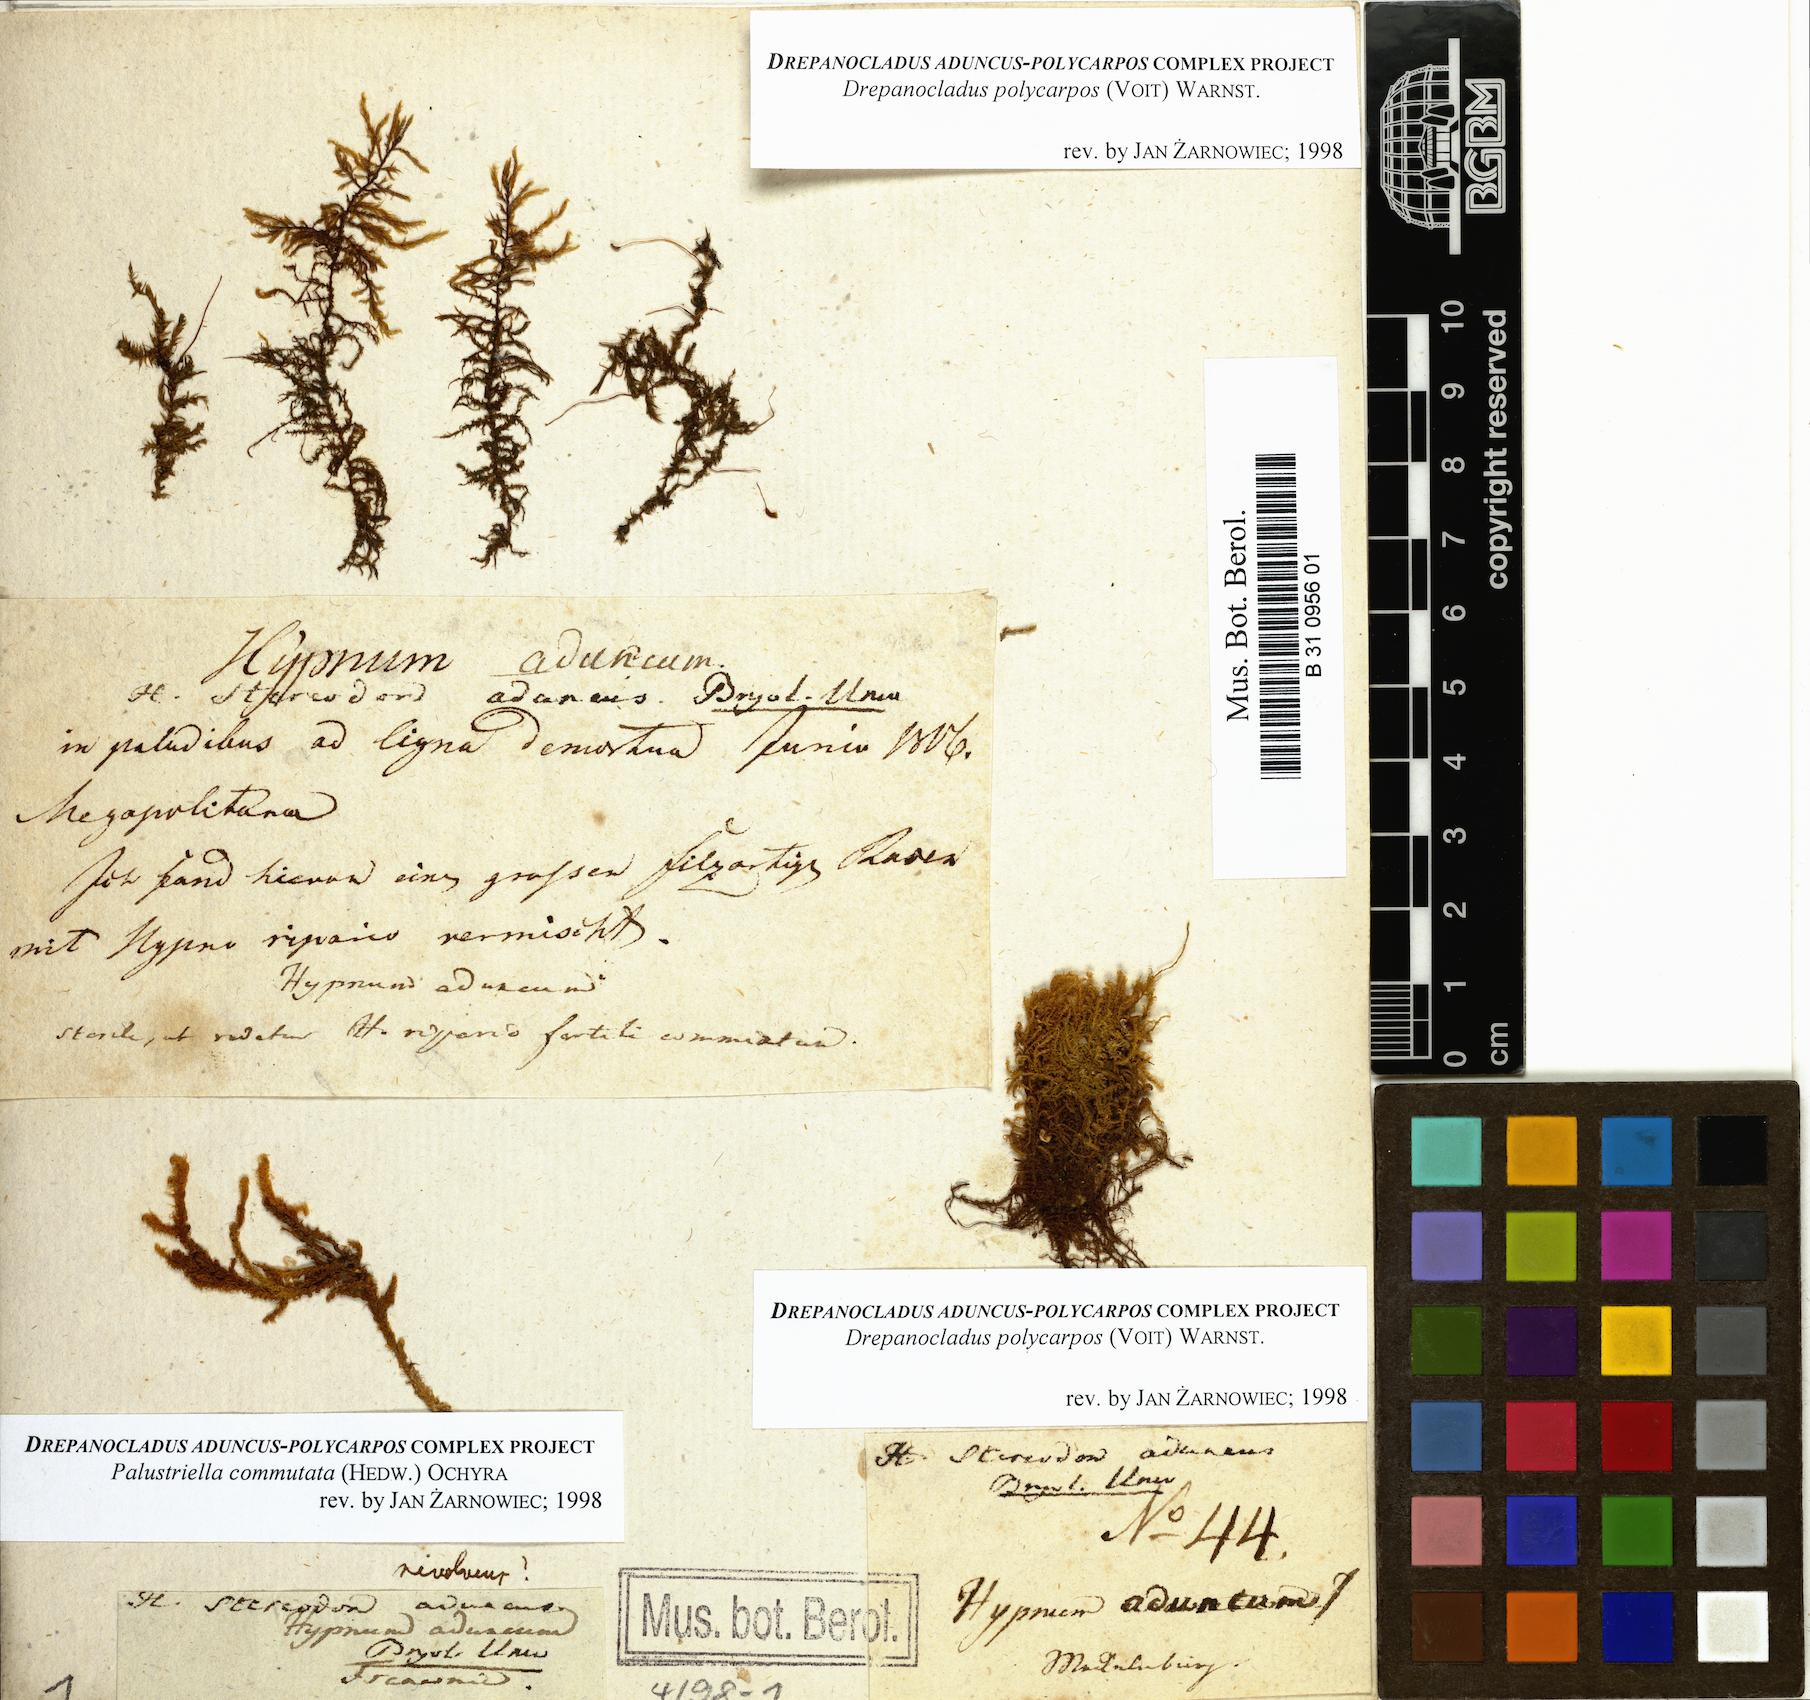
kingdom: Plantae
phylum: Bryophyta
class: Bryopsida
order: Hypnales
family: Amblystegiaceae
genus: Drepanocladus
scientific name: Drepanocladus aduncus
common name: Knieff's hook moss
